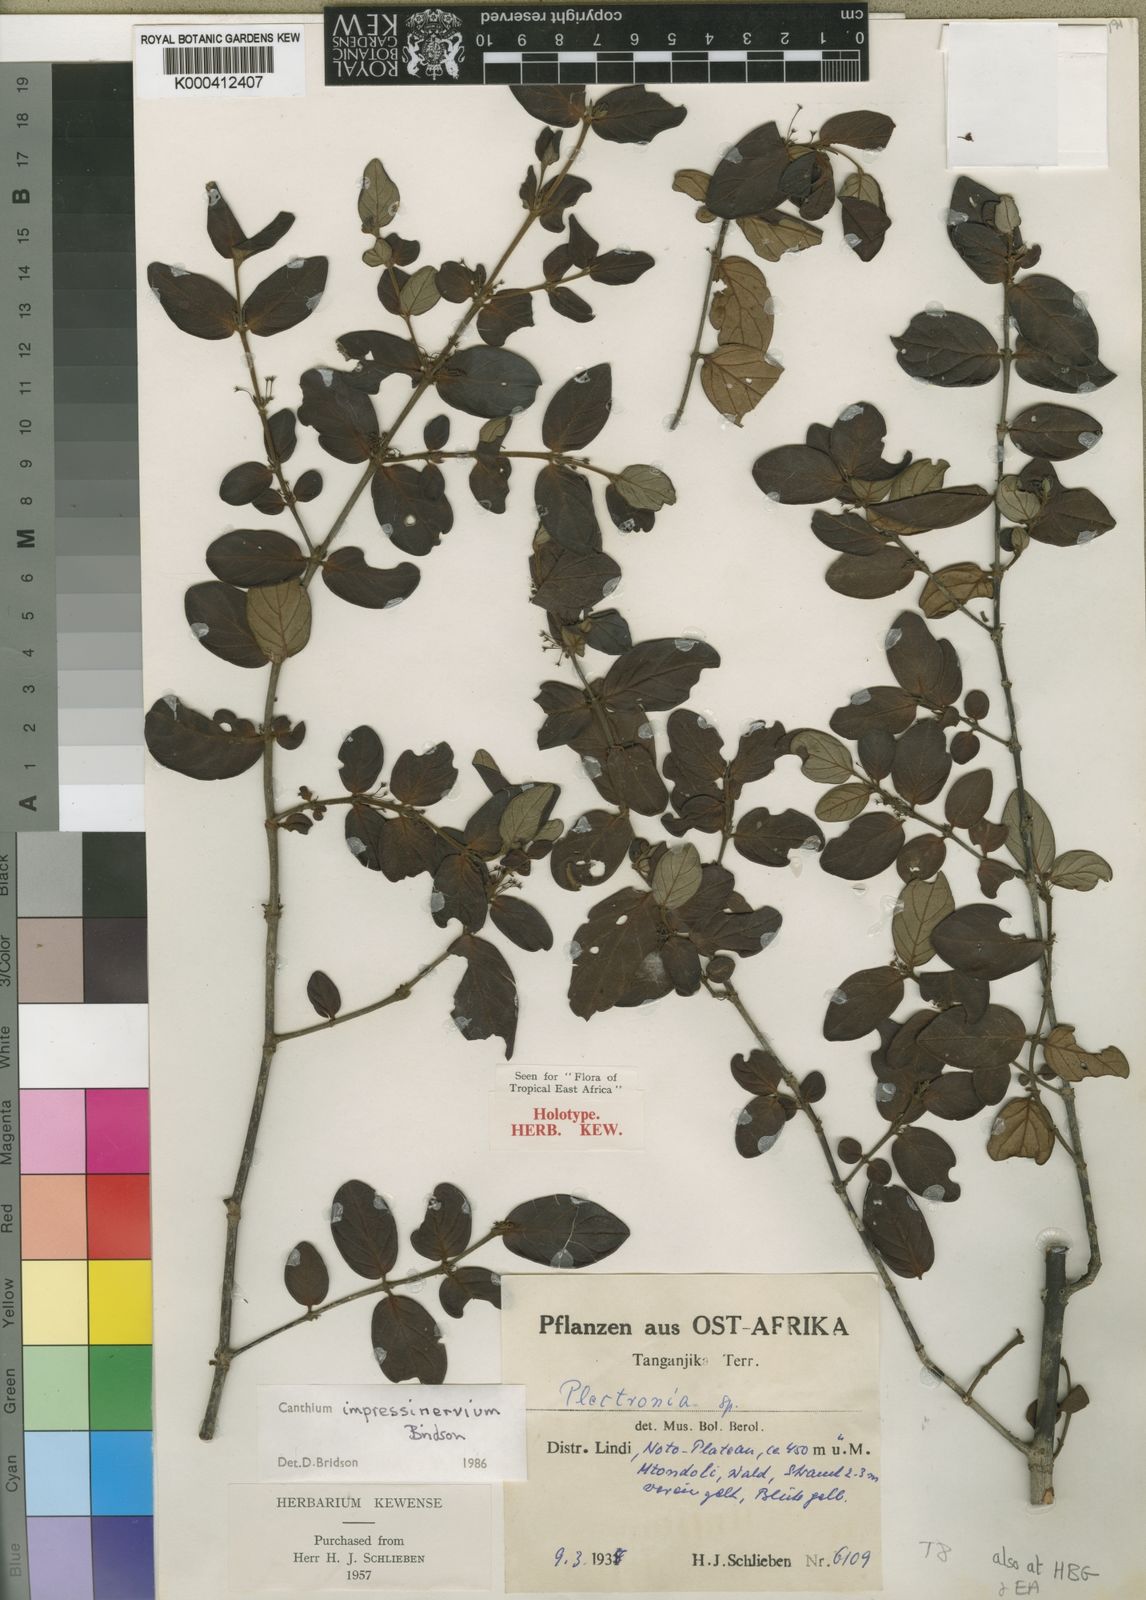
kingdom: Plantae
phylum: Tracheophyta
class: Magnoliopsida
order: Gentianales
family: Rubiaceae
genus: Bullockia
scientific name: Bullockia impressinervia
